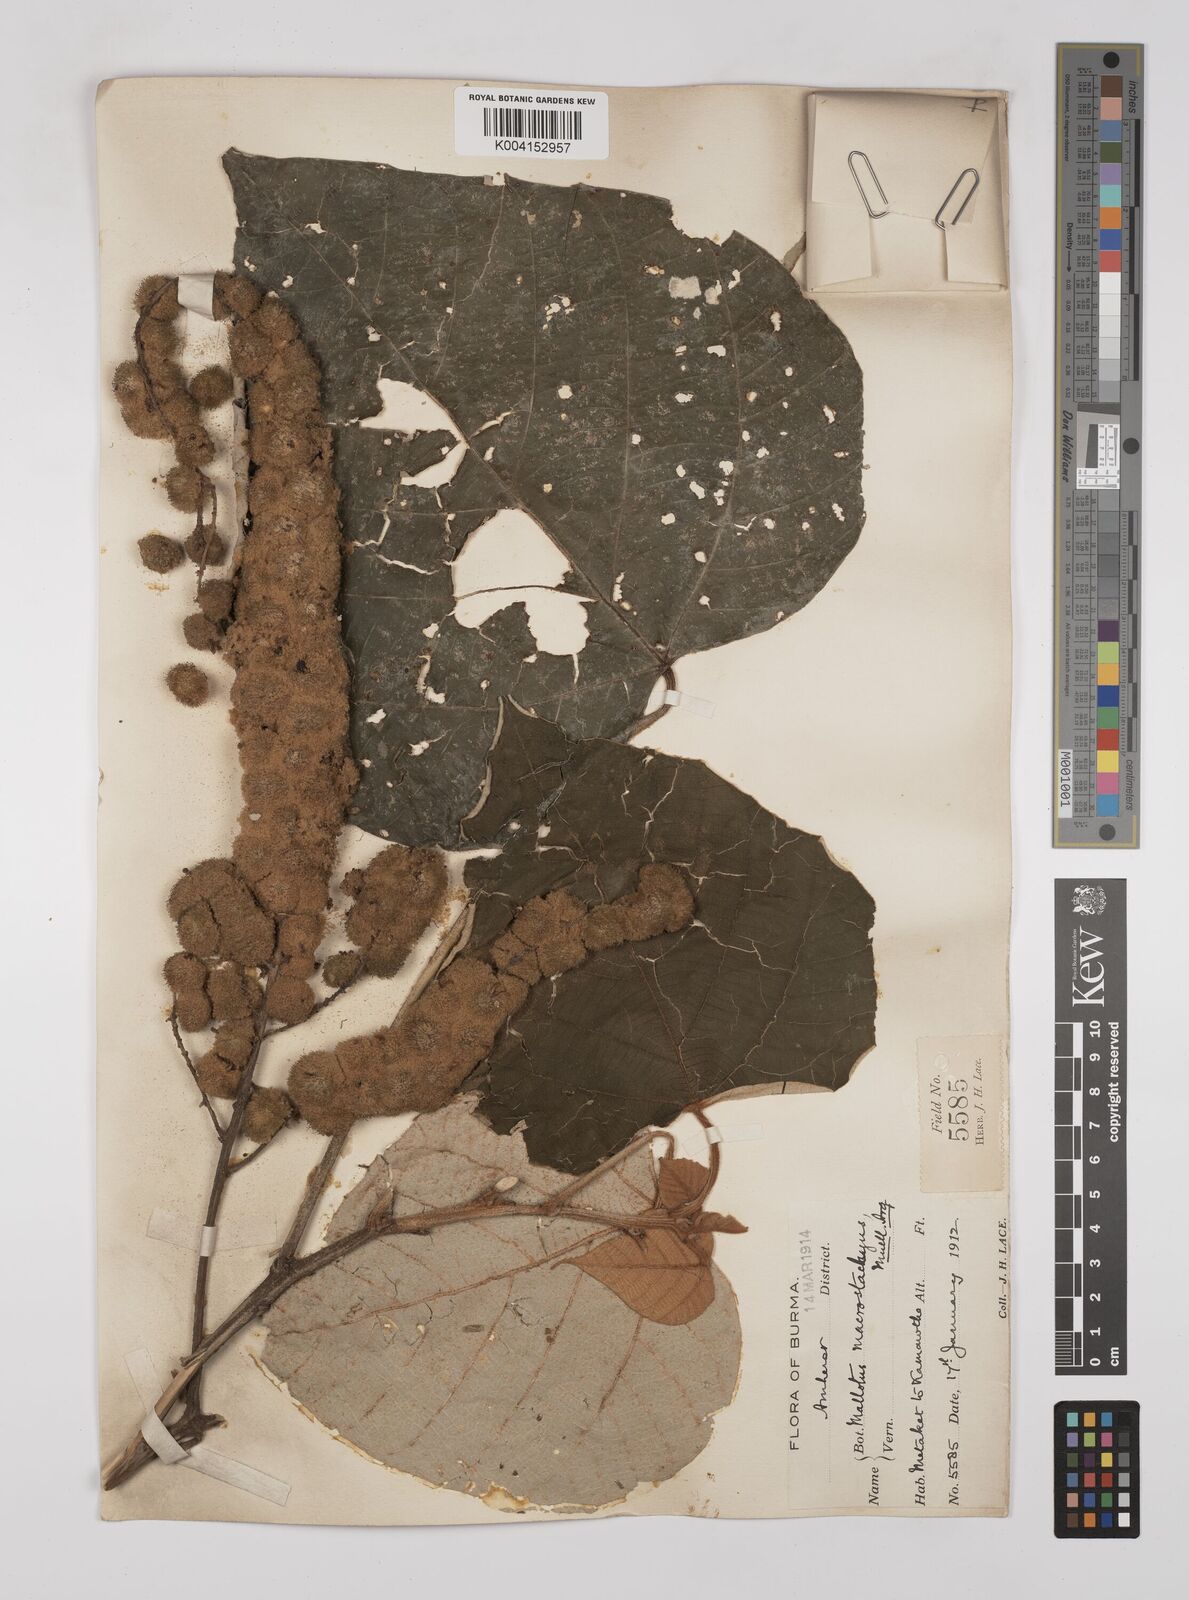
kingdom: Plantae
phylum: Tracheophyta
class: Magnoliopsida
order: Malpighiales
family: Euphorbiaceae
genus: Mallotus
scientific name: Mallotus macrostachyus
